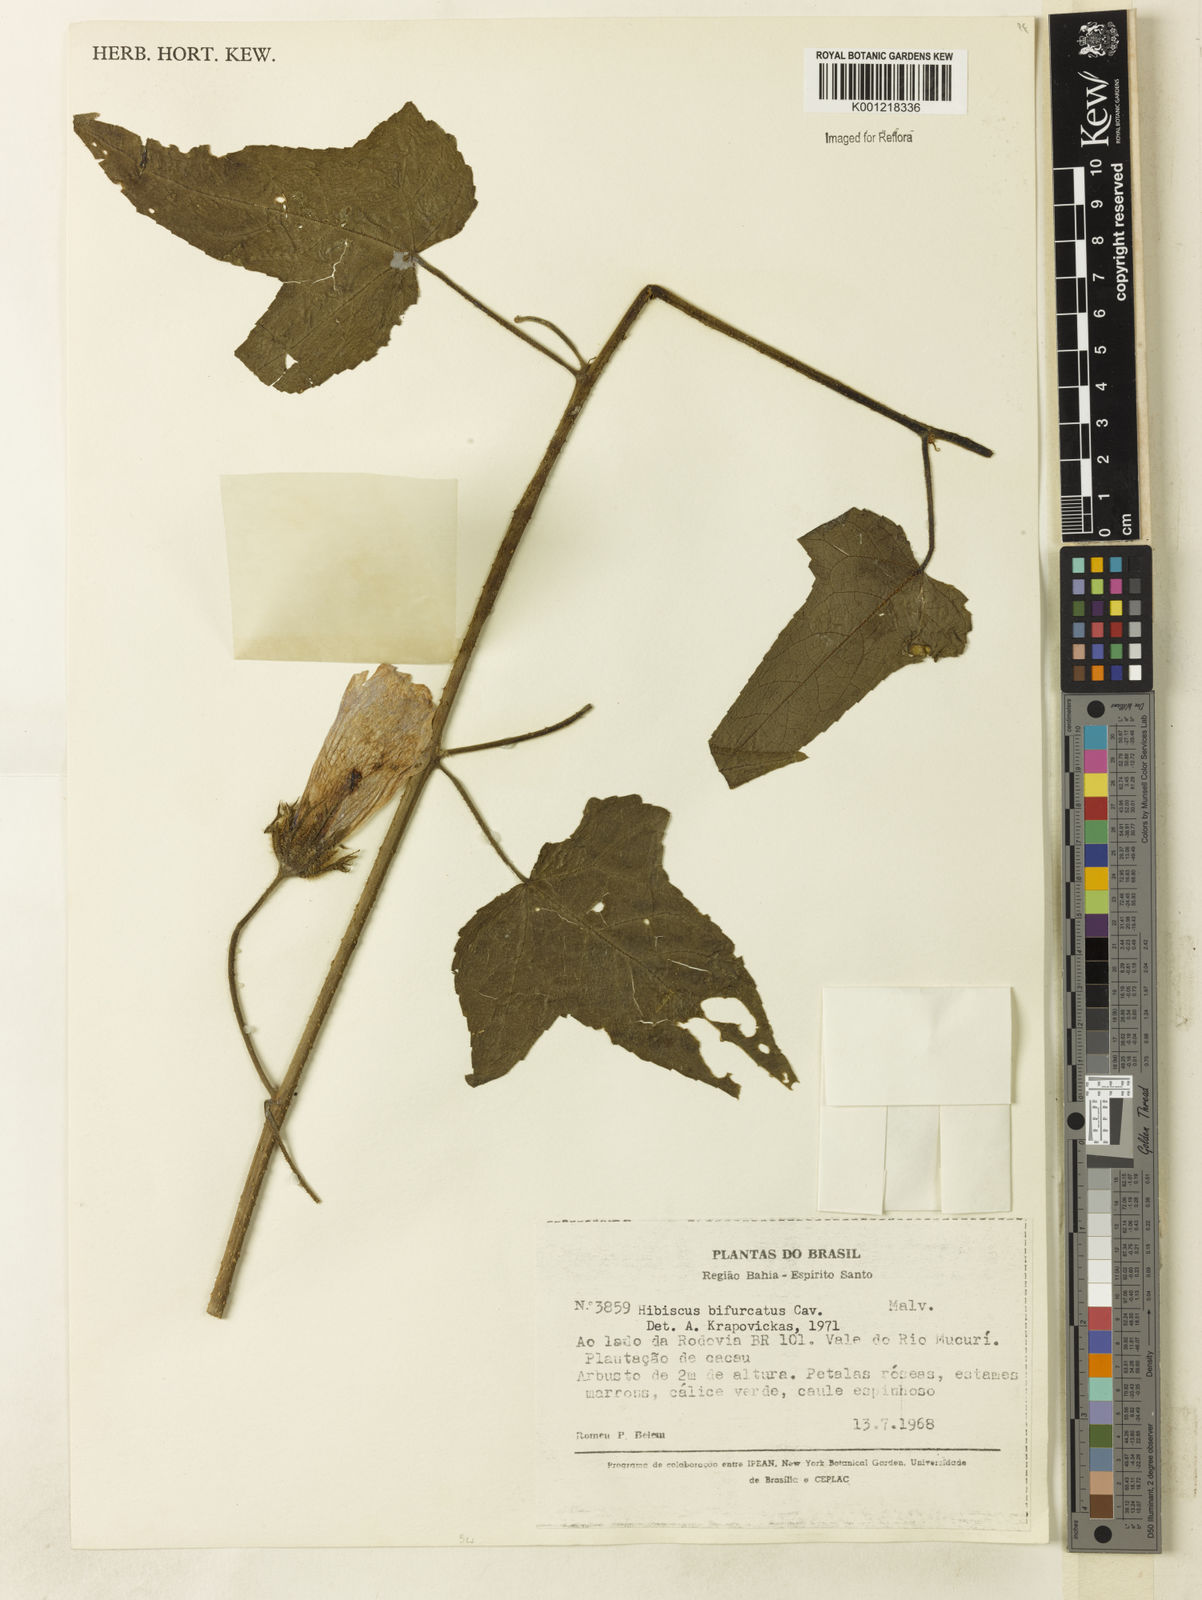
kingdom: Plantae
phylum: Tracheophyta
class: Magnoliopsida
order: Malvales
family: Malvaceae
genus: Hibiscus
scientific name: Hibiscus bifurcatus
